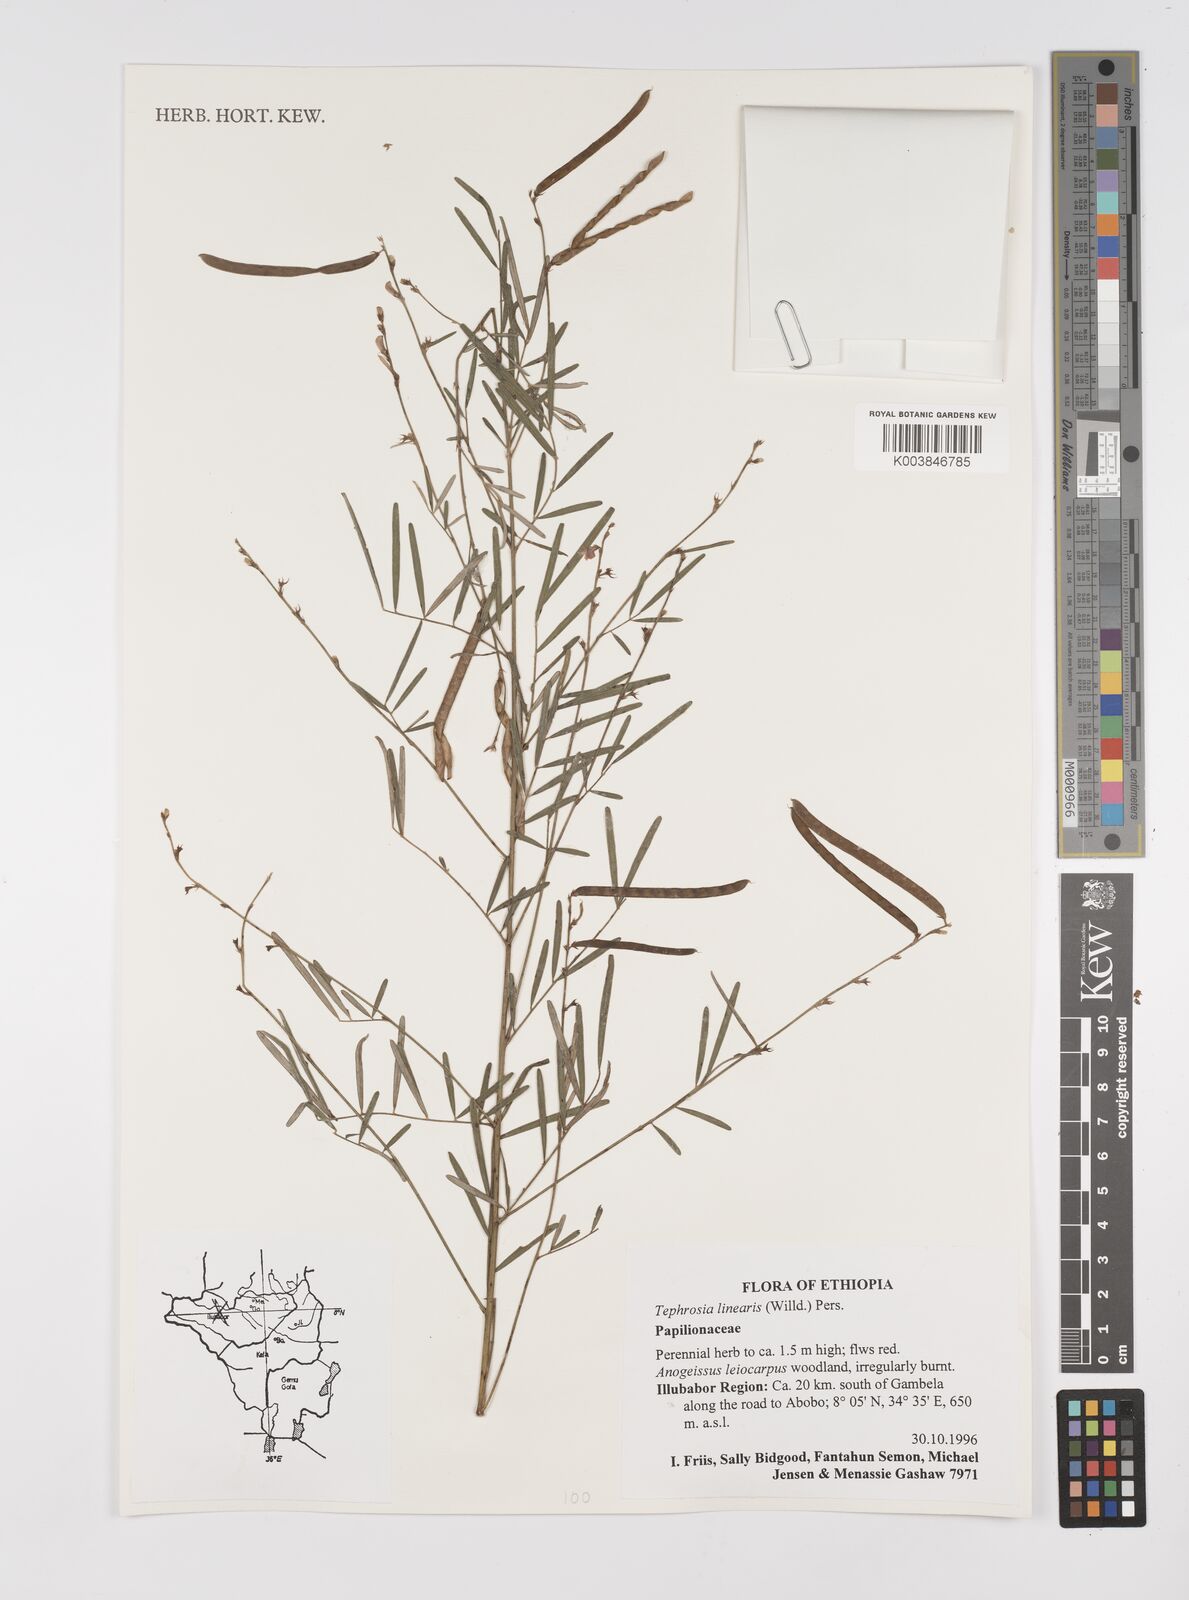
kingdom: Plantae
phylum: Tracheophyta
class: Magnoliopsida
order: Fabales
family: Fabaceae
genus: Tephrosia
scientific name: Tephrosia linearis
